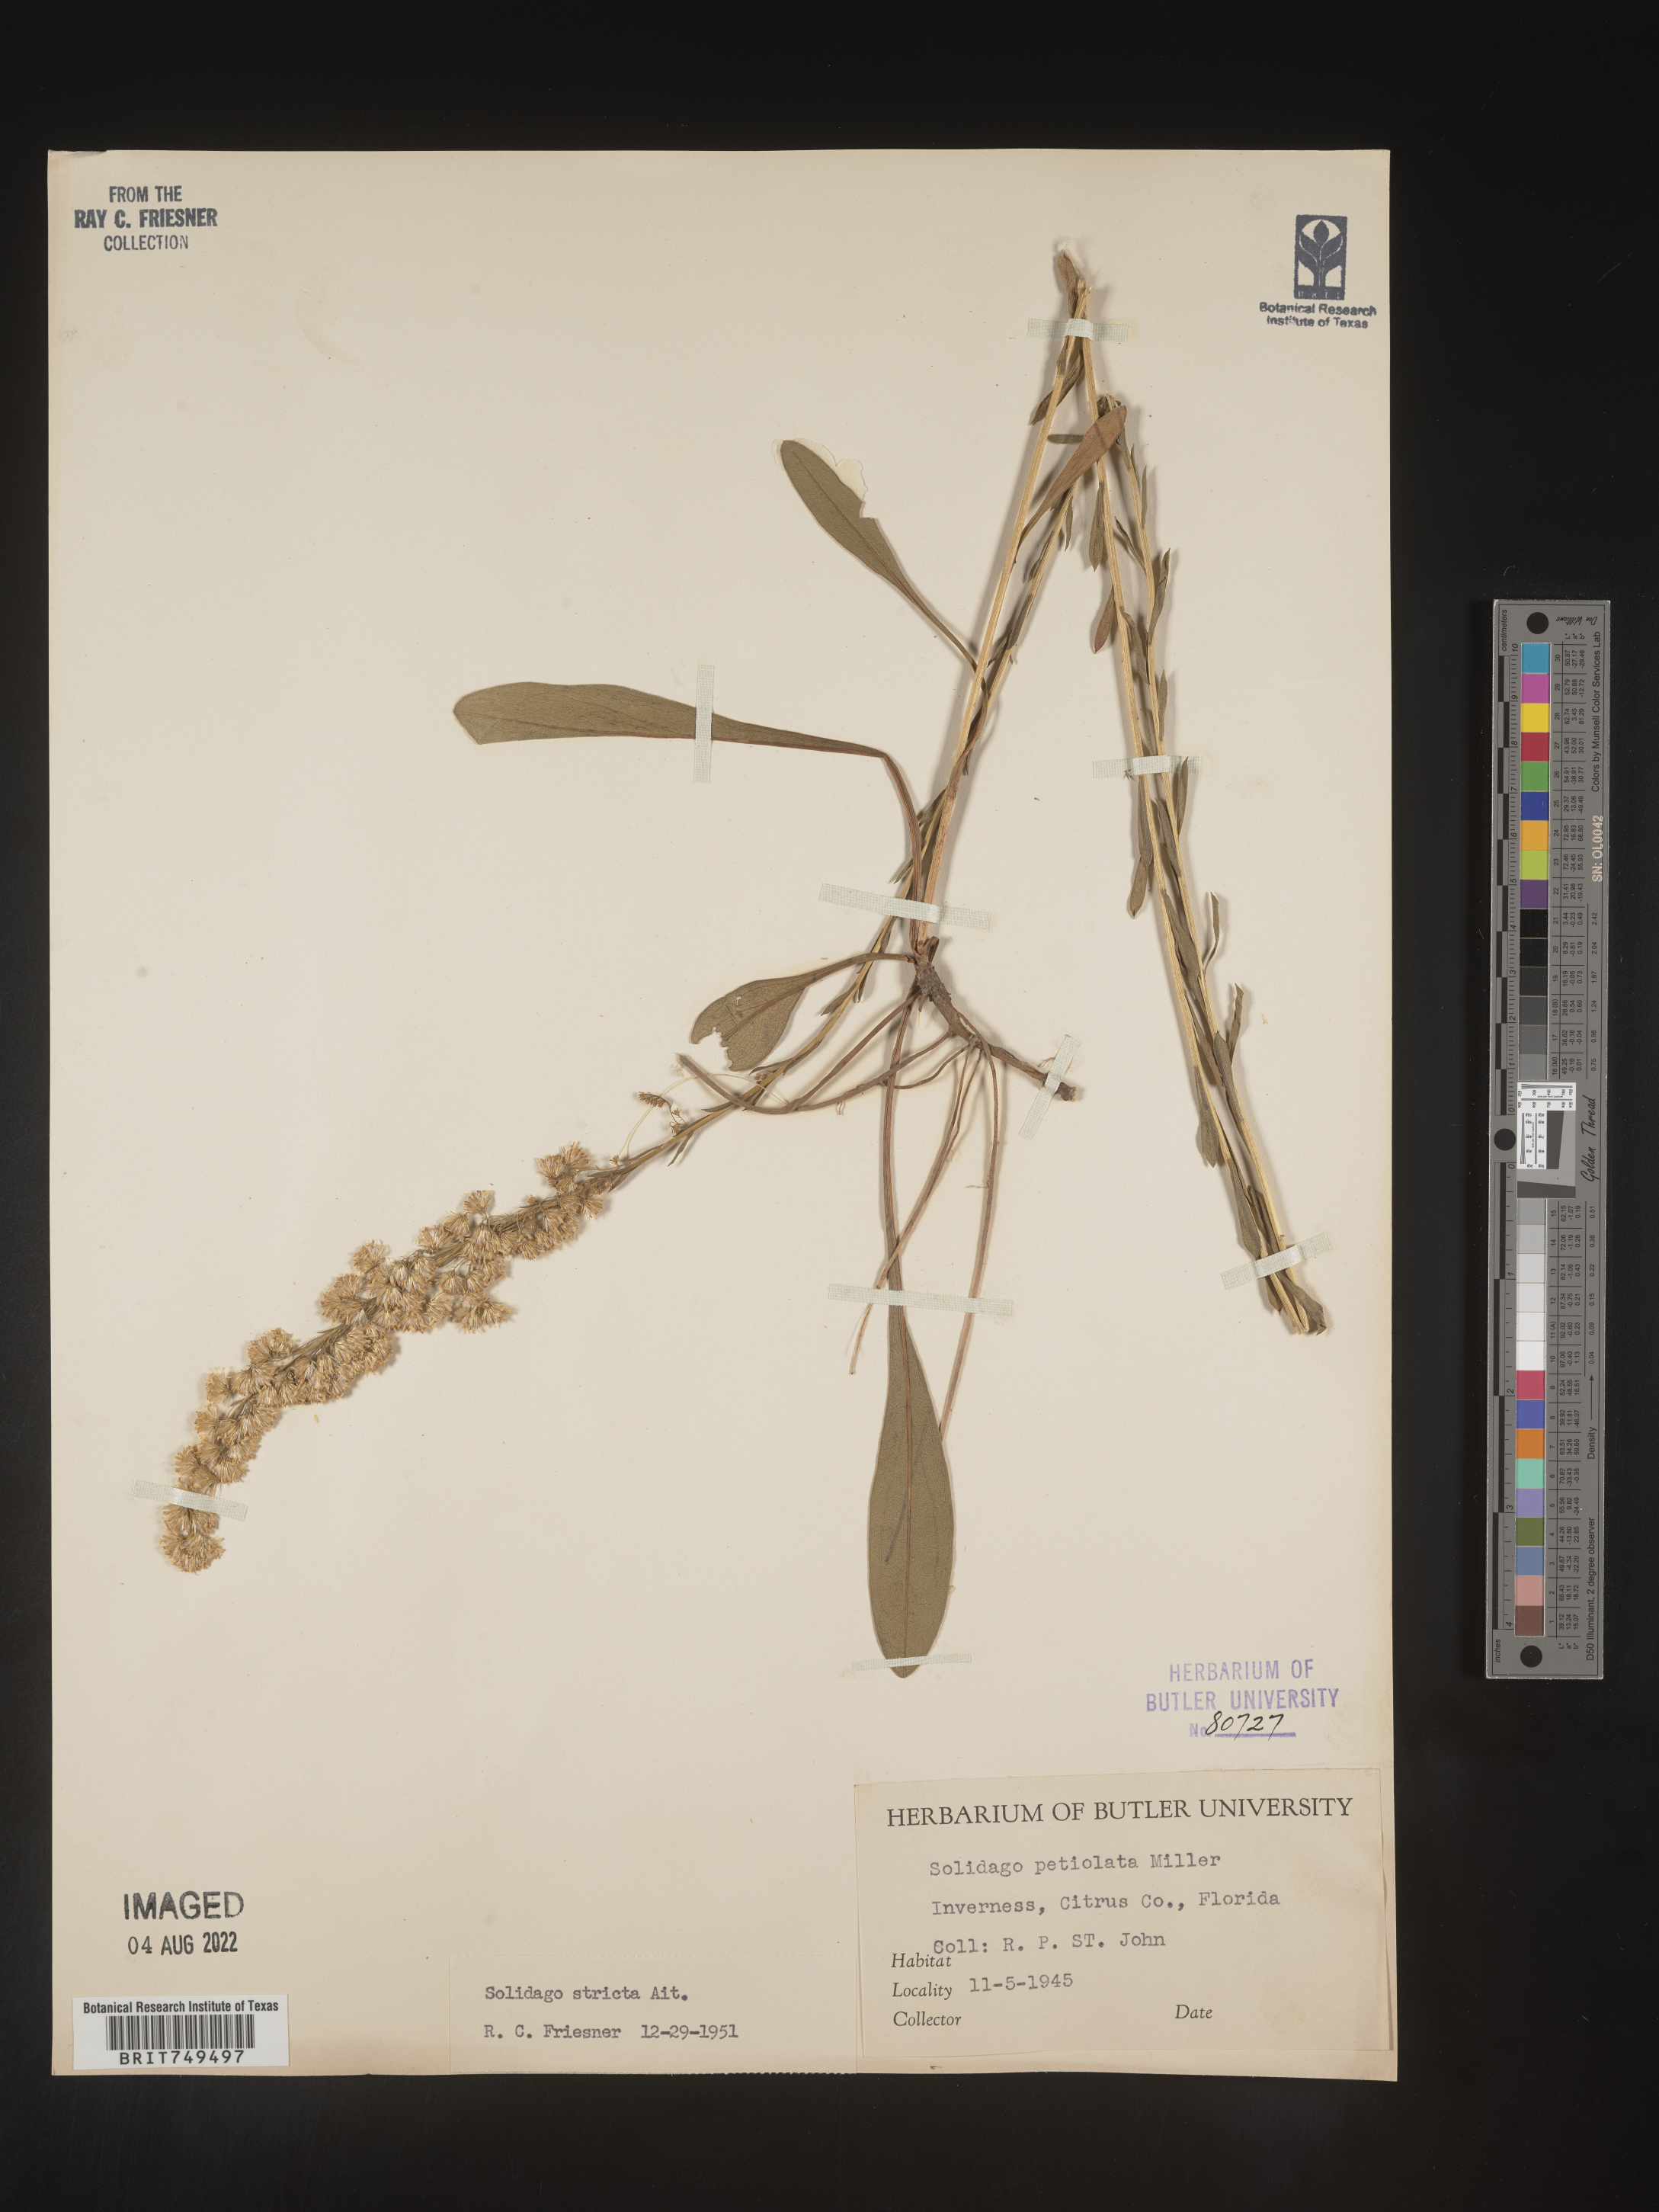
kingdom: Plantae
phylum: Tracheophyta
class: Magnoliopsida
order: Asterales
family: Asteraceae
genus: Solidago
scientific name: Solidago stricta
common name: Pine barren bog goldenrod
